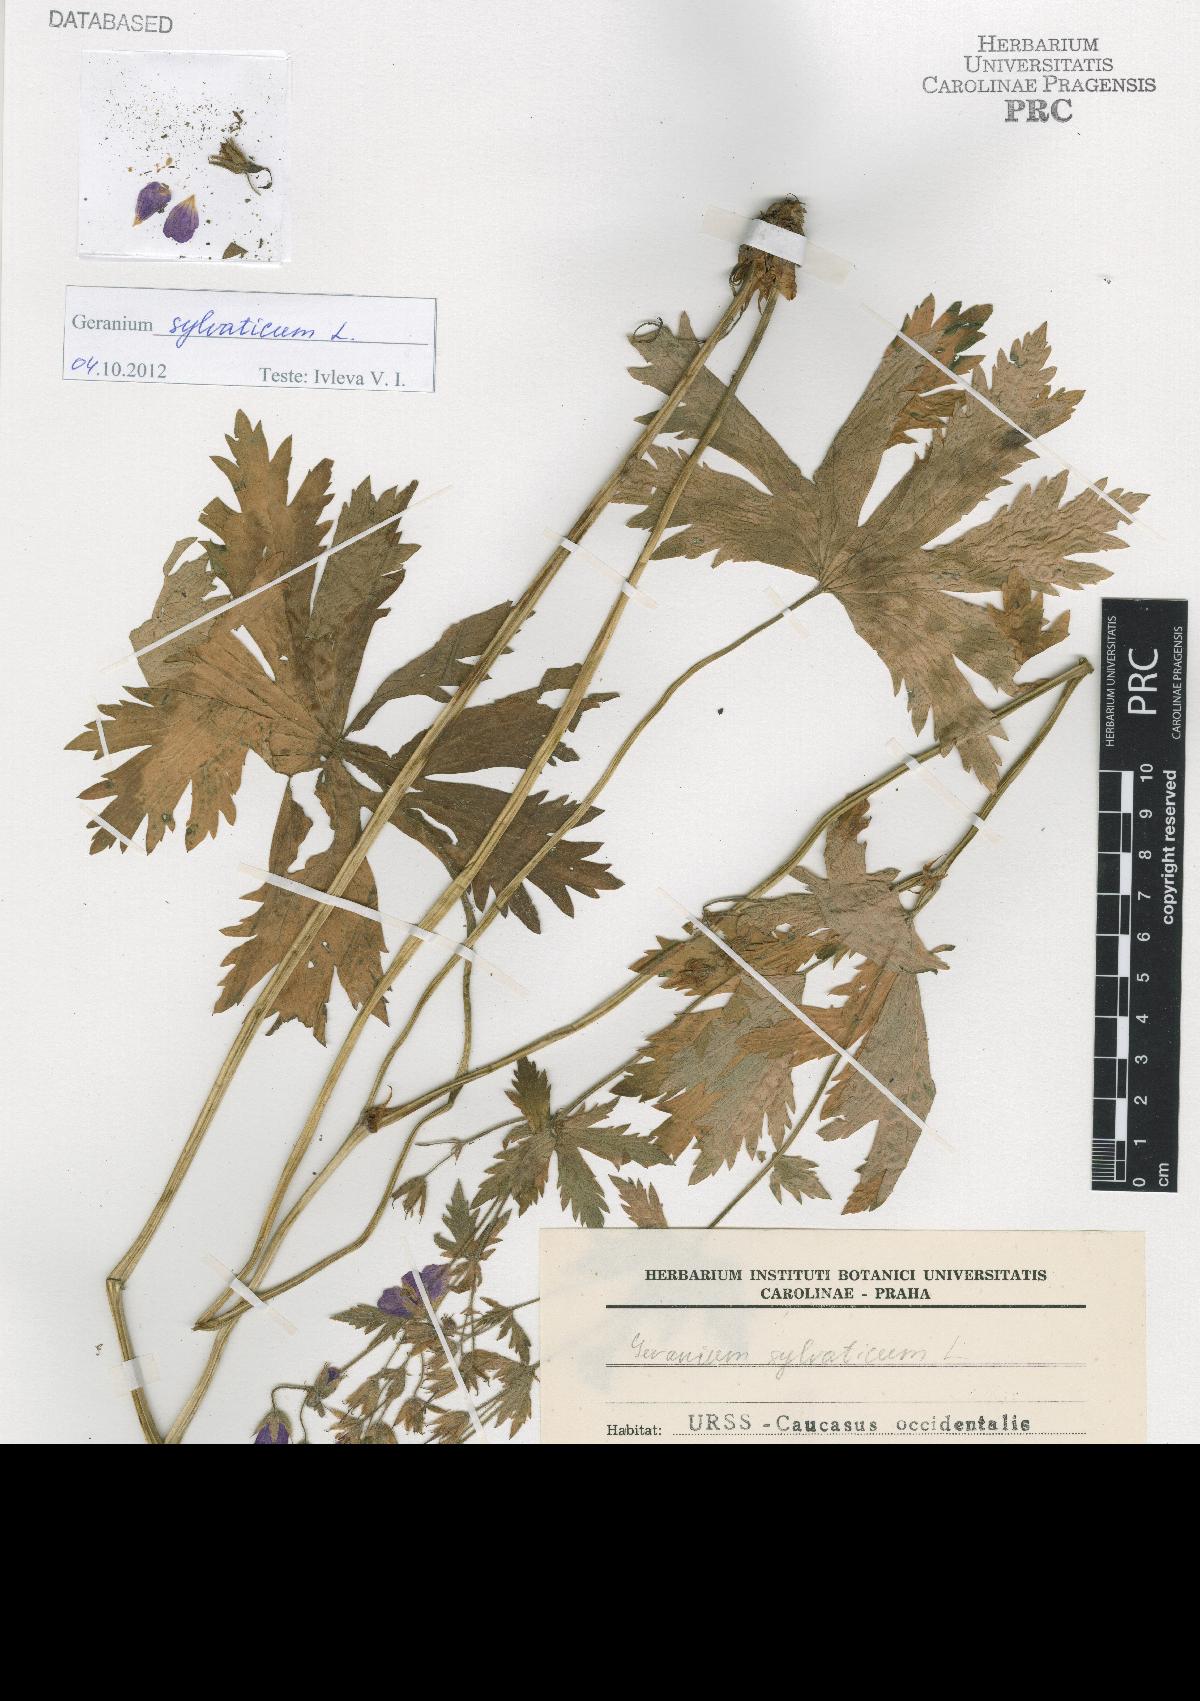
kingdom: Plantae
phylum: Tracheophyta
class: Magnoliopsida
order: Geraniales
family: Geraniaceae
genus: Geranium
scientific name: Geranium sylvaticum
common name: Wood crane's-bill
